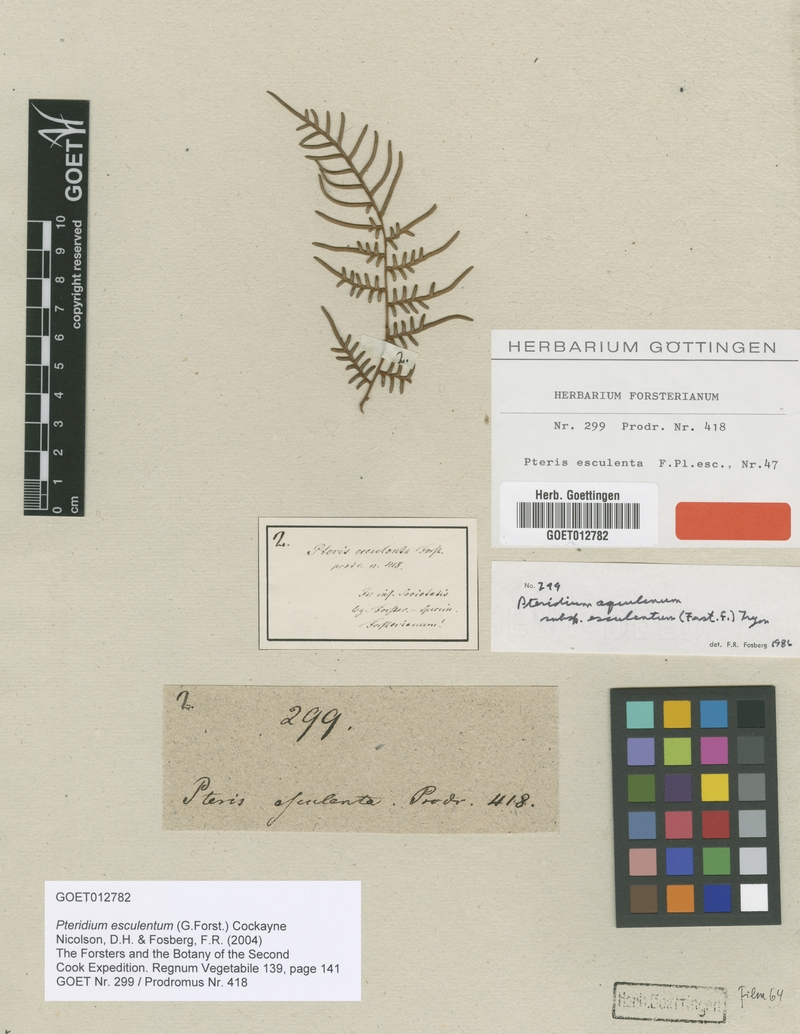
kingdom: Plantae
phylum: Tracheophyta
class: Polypodiopsida
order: Polypodiales
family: Dennstaedtiaceae
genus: Pteridium
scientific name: Pteridium esculentum
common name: Bracken fern
